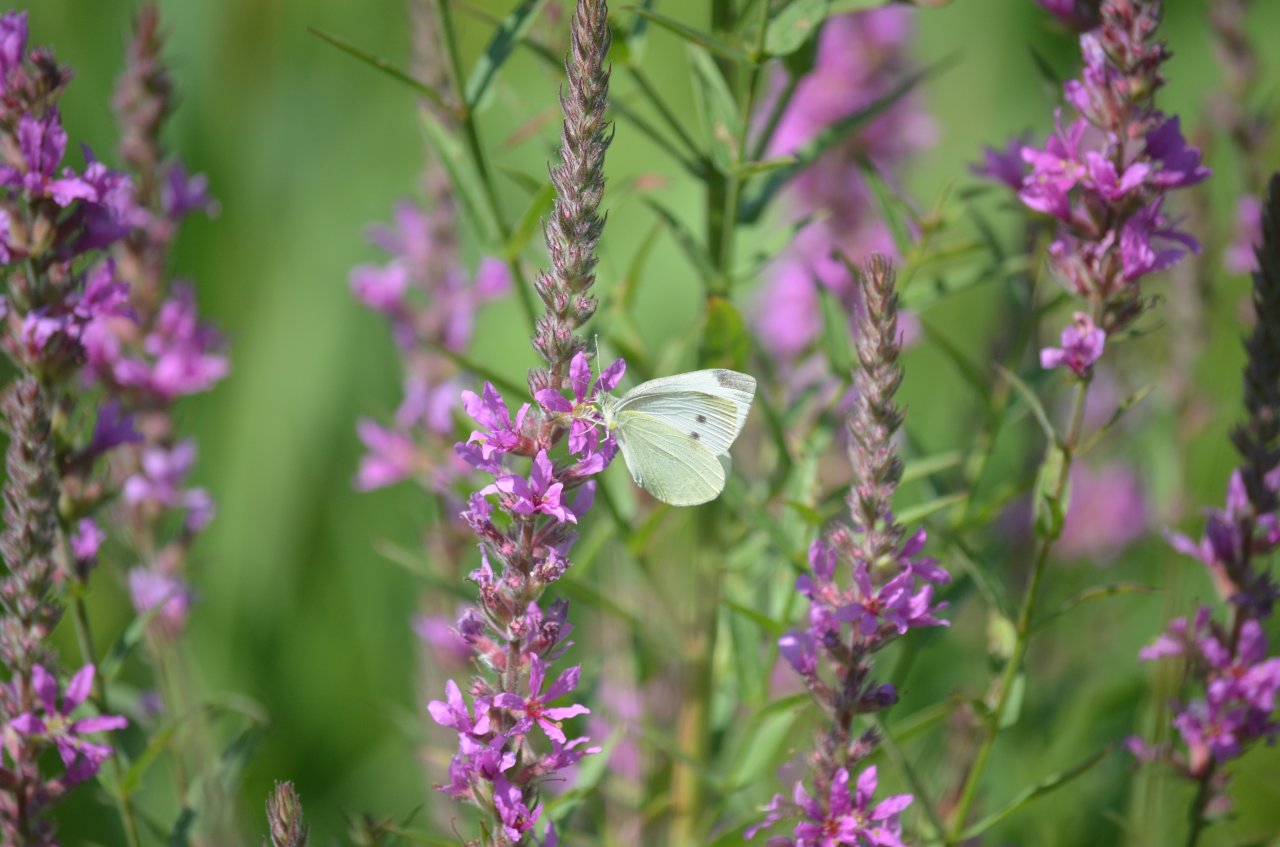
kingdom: Animalia
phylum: Arthropoda
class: Insecta
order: Lepidoptera
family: Pieridae
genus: Pieris
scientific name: Pieris rapae
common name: Cabbage White
